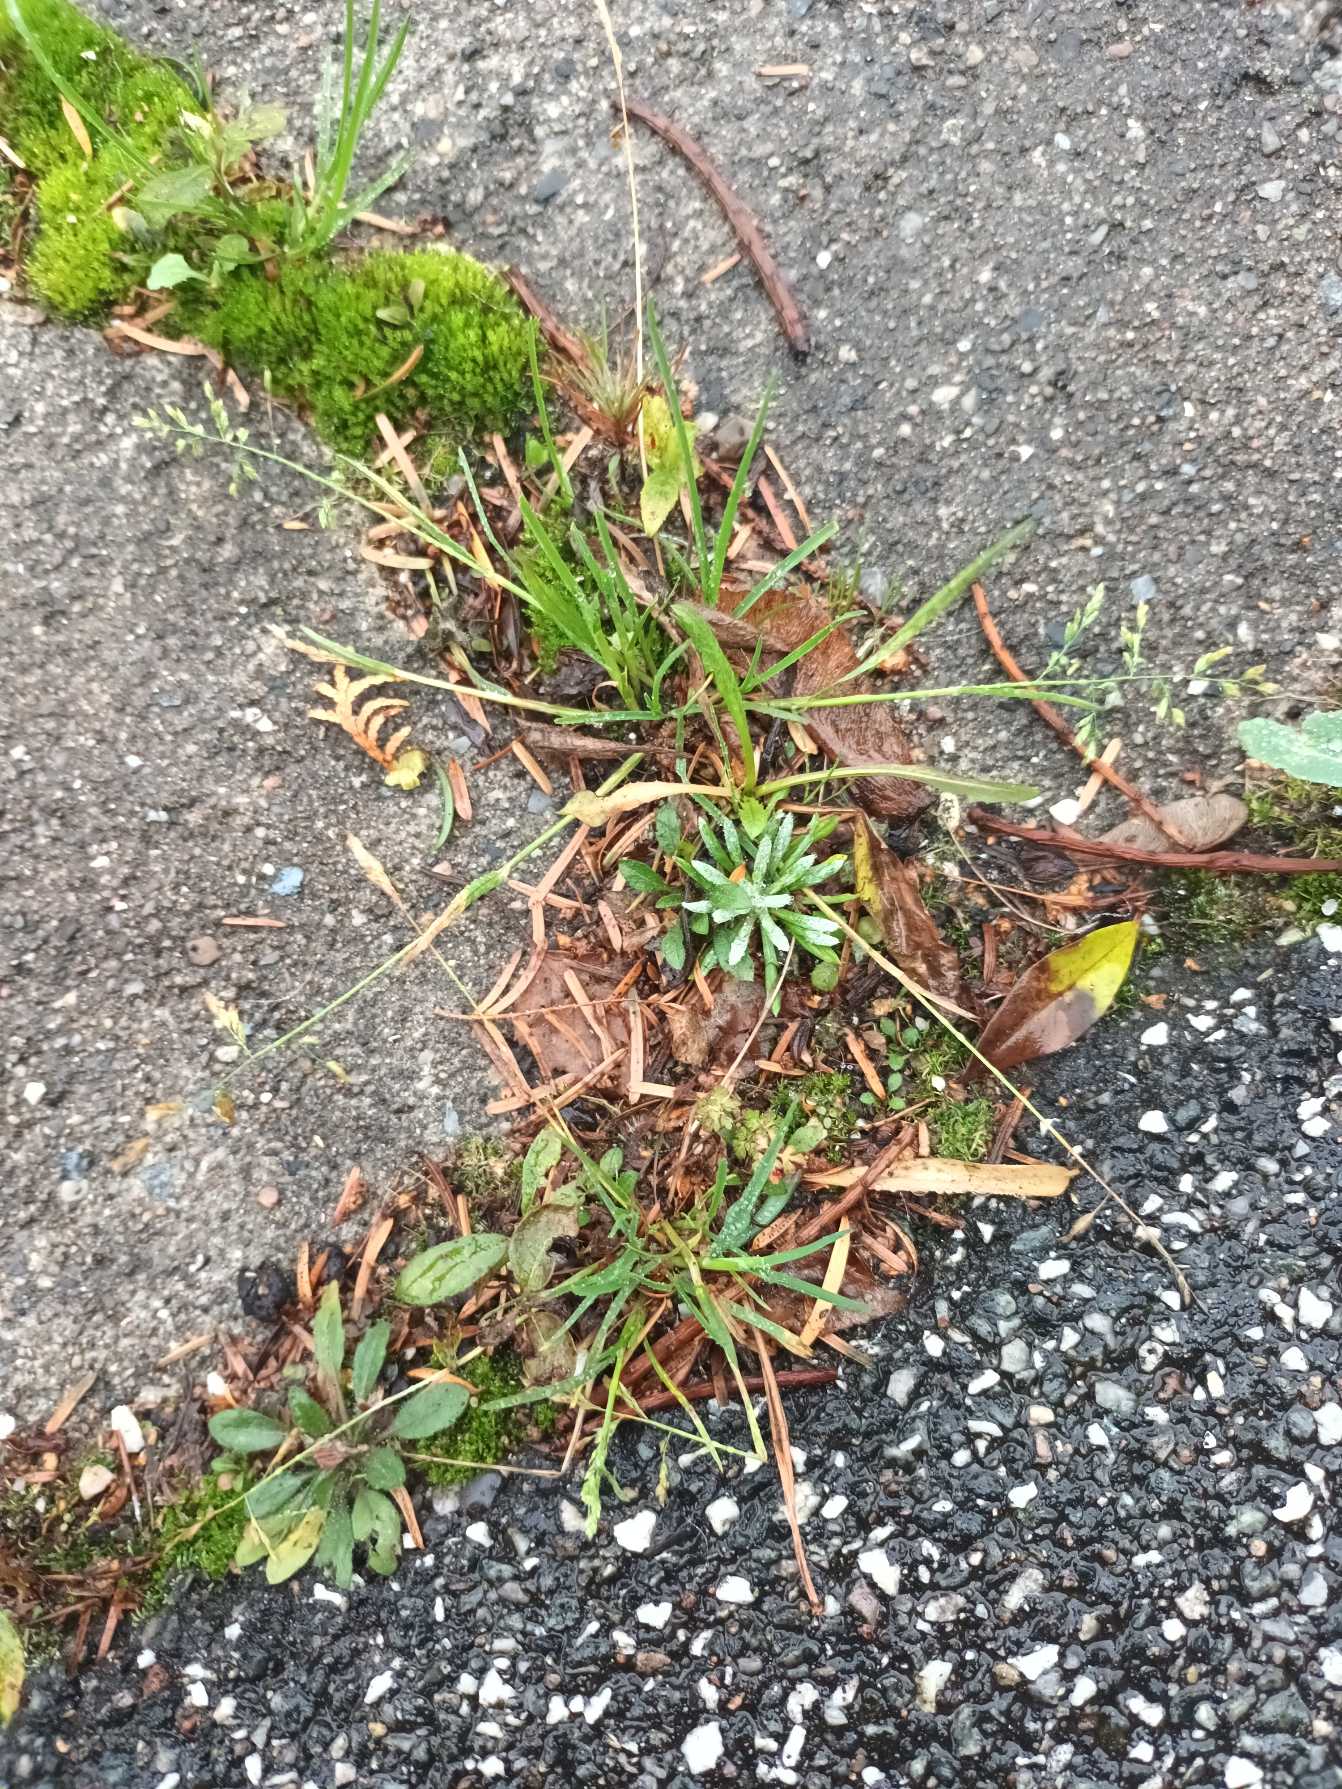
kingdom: Plantae
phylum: Tracheophyta
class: Liliopsida
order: Poales
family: Poaceae
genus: Poa
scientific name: Poa annua
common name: Enårig rapgræs
